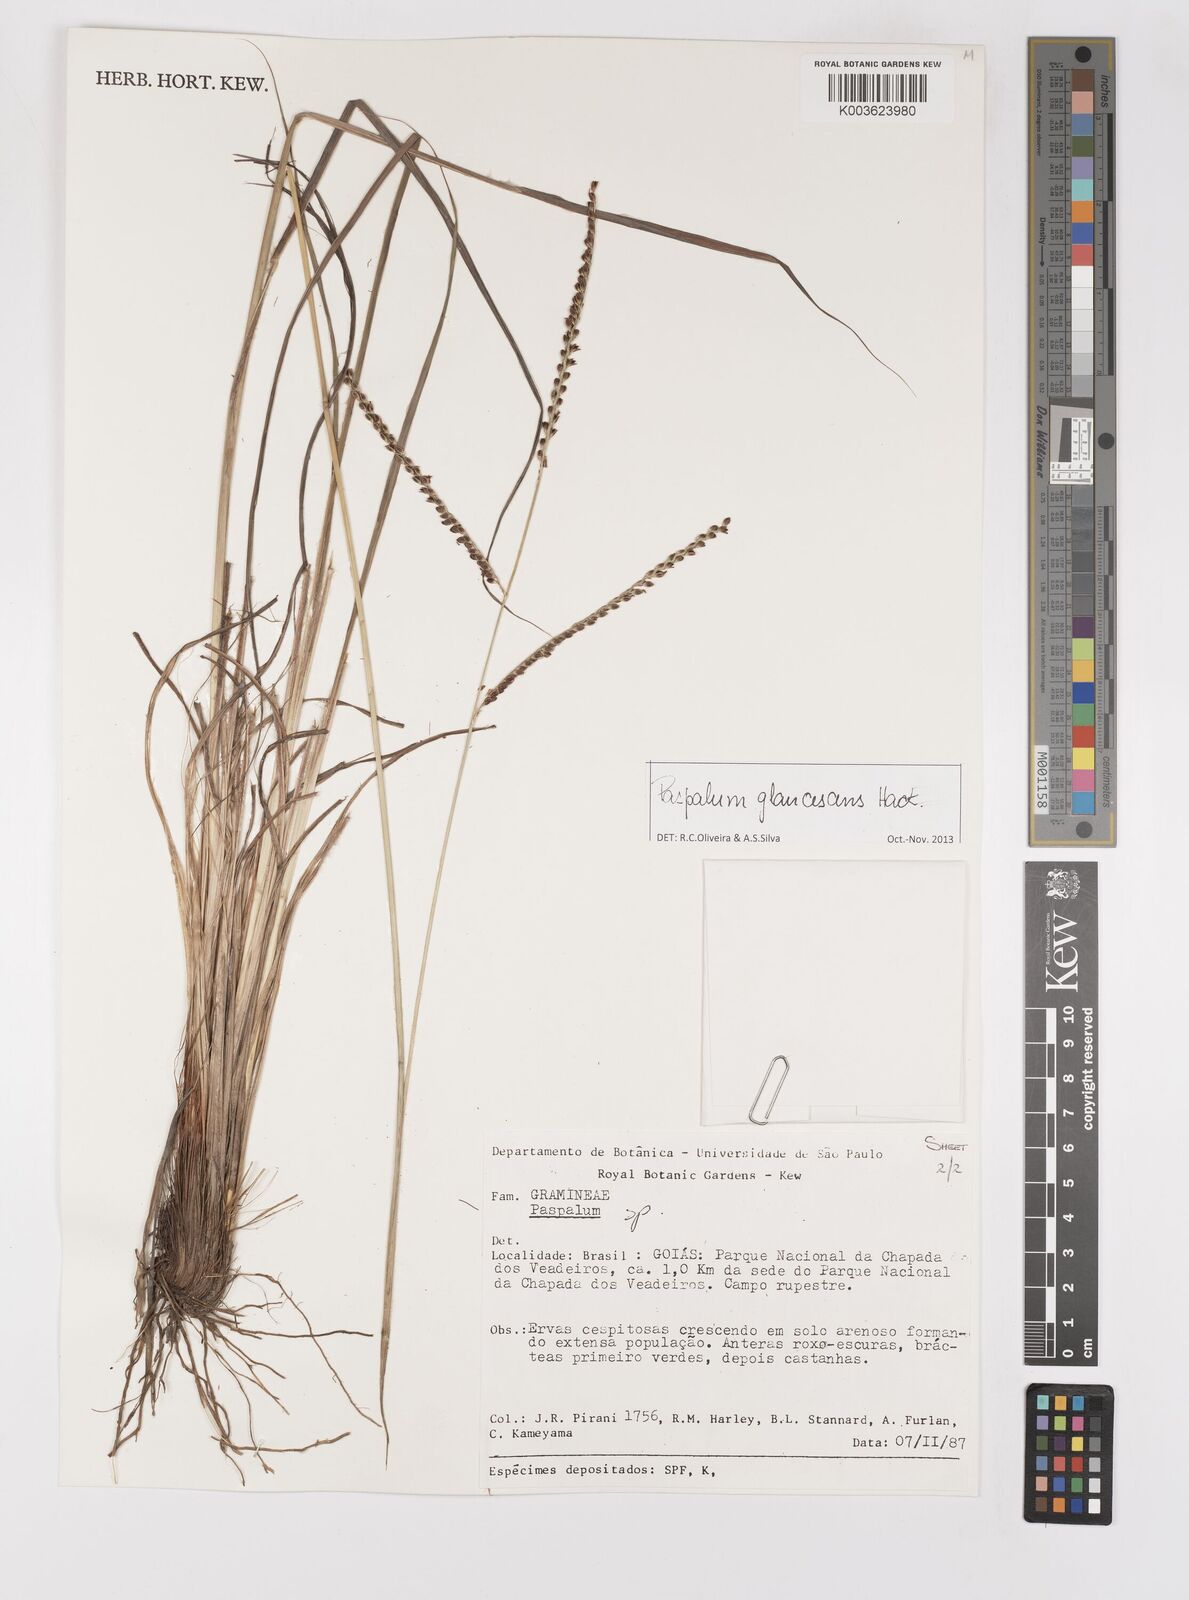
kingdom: Plantae
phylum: Tracheophyta
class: Liliopsida
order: Poales
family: Poaceae
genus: Paspalum
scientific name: Paspalum
